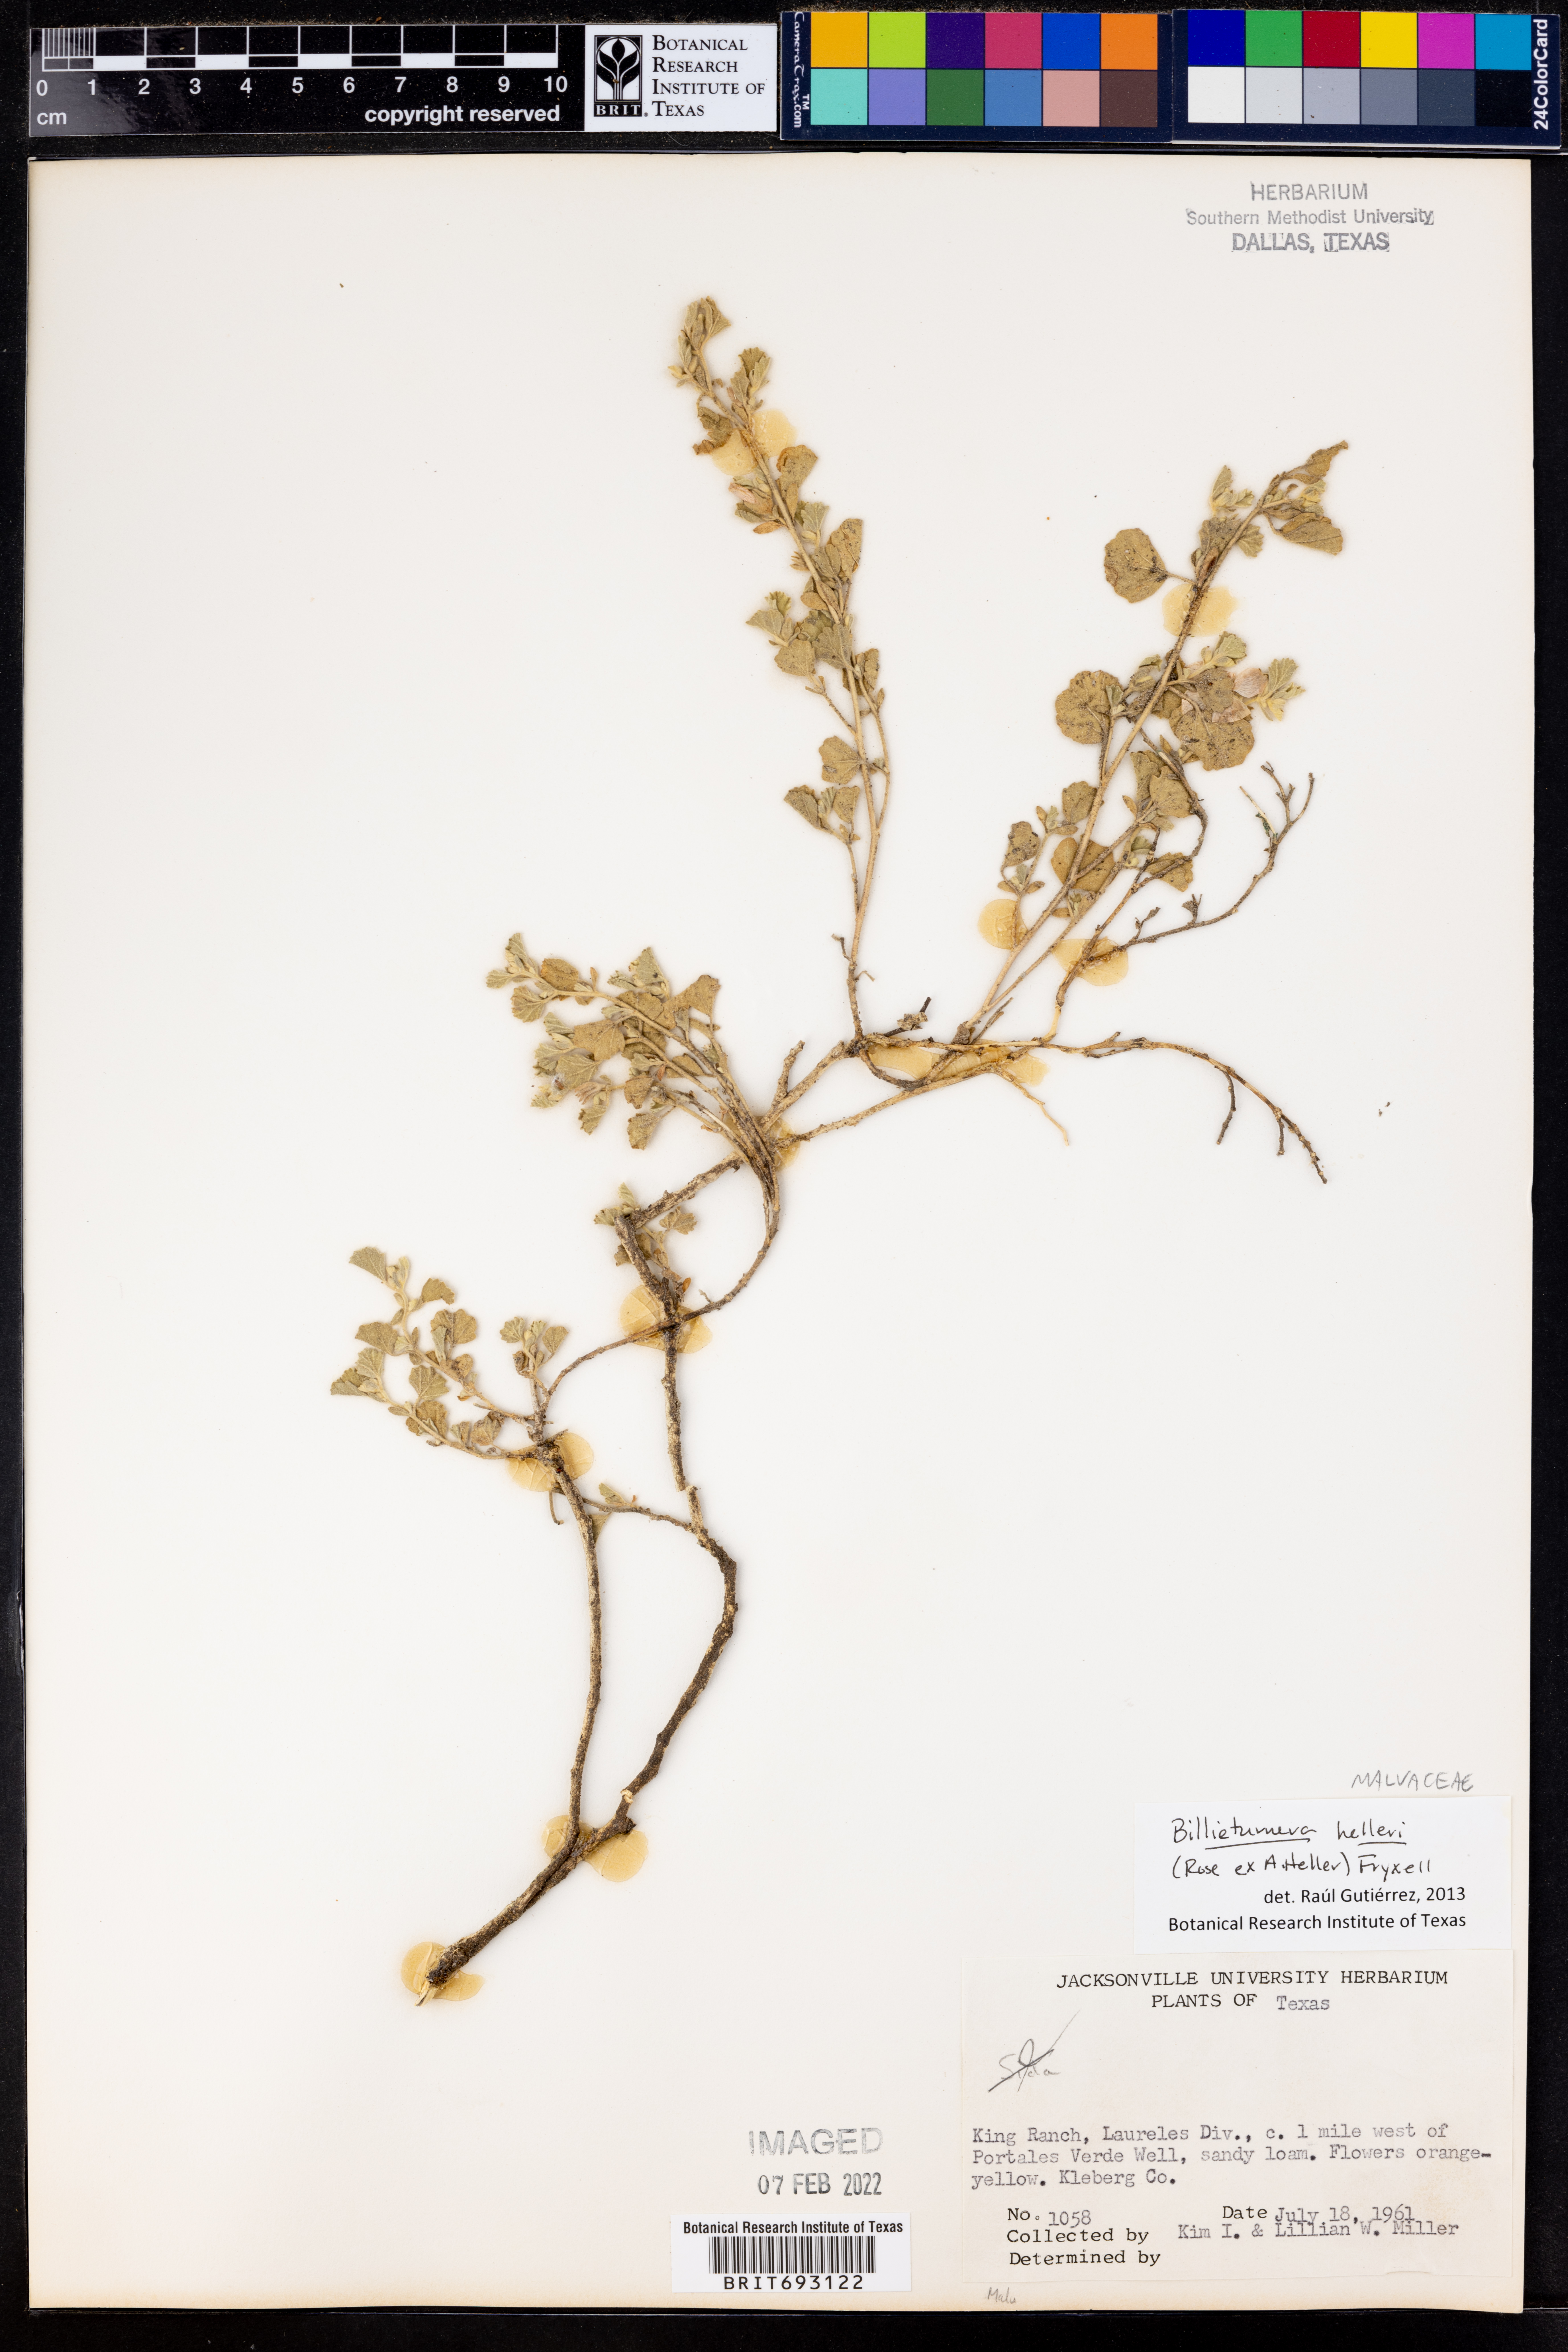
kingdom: Plantae
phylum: Tracheophyta
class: Magnoliopsida
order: Malvales
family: Malvaceae
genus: Billieturnera
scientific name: Billieturnera helleri
